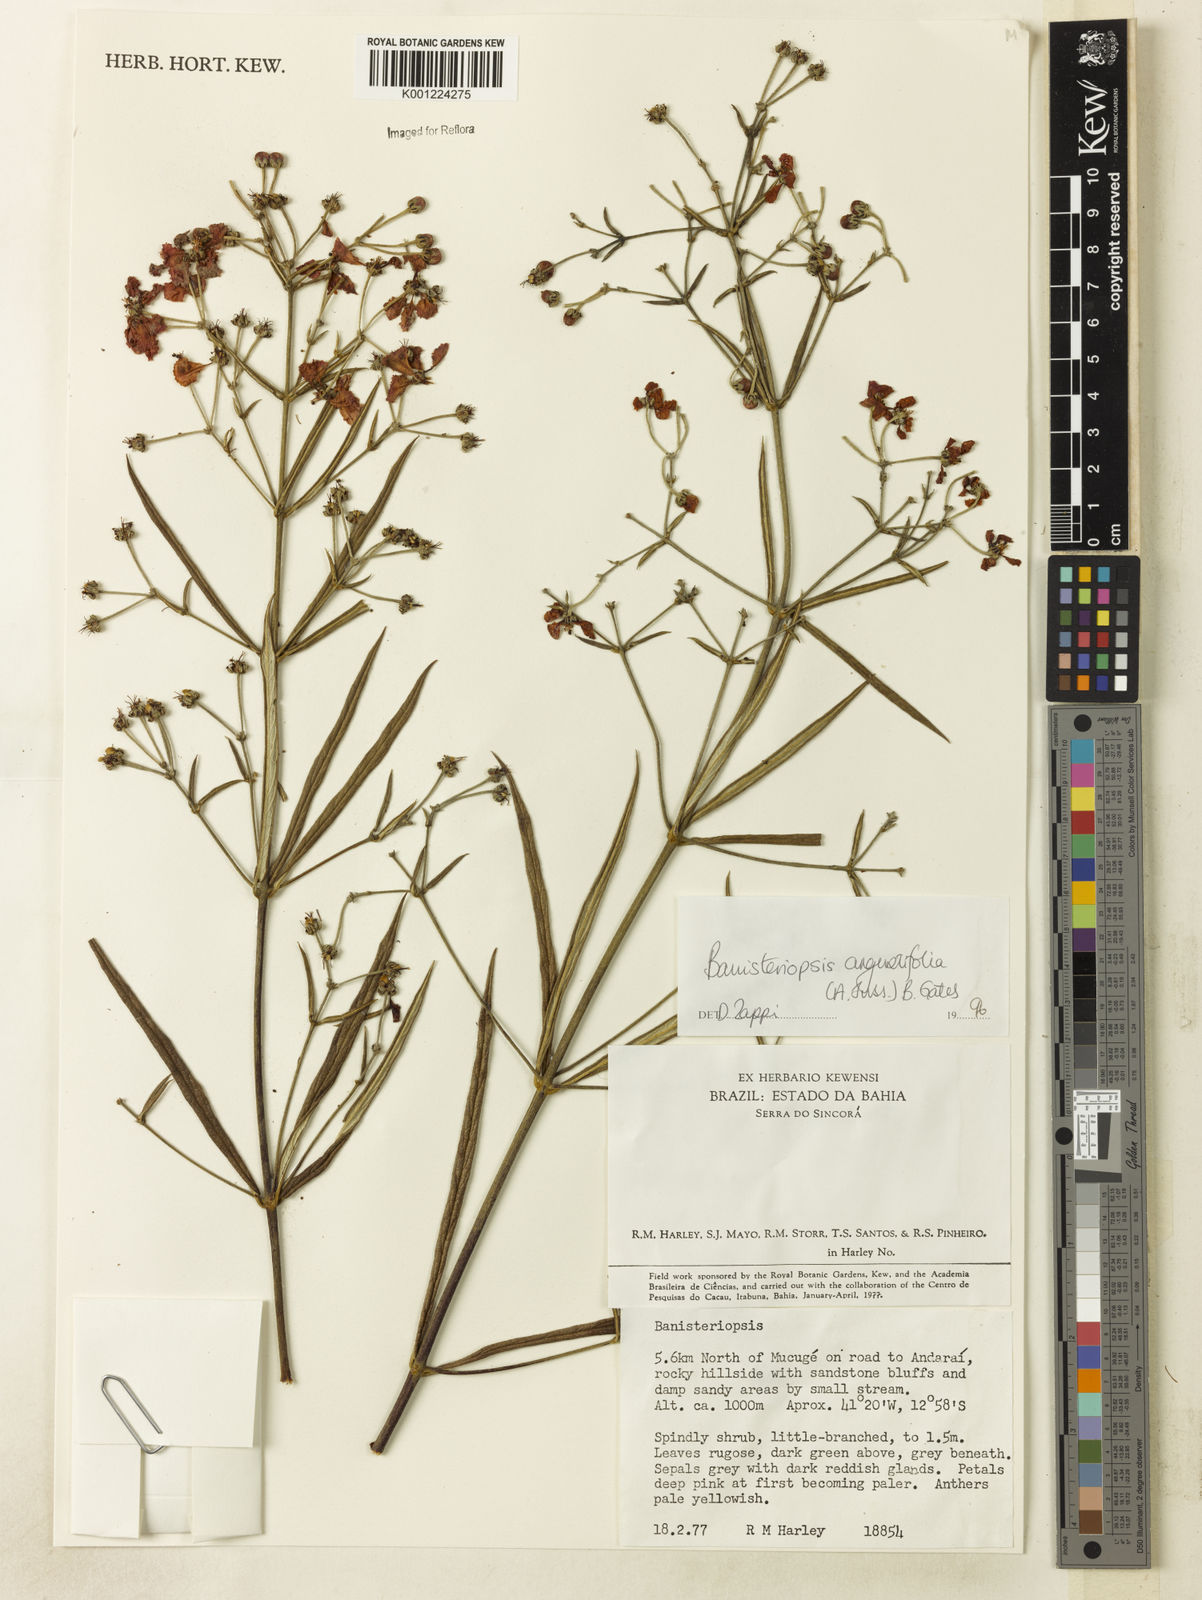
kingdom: Plantae
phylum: Tracheophyta
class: Magnoliopsida
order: Malpighiales
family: Malpighiaceae
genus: Banisteriopsis
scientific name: Banisteriopsis angustifolia
